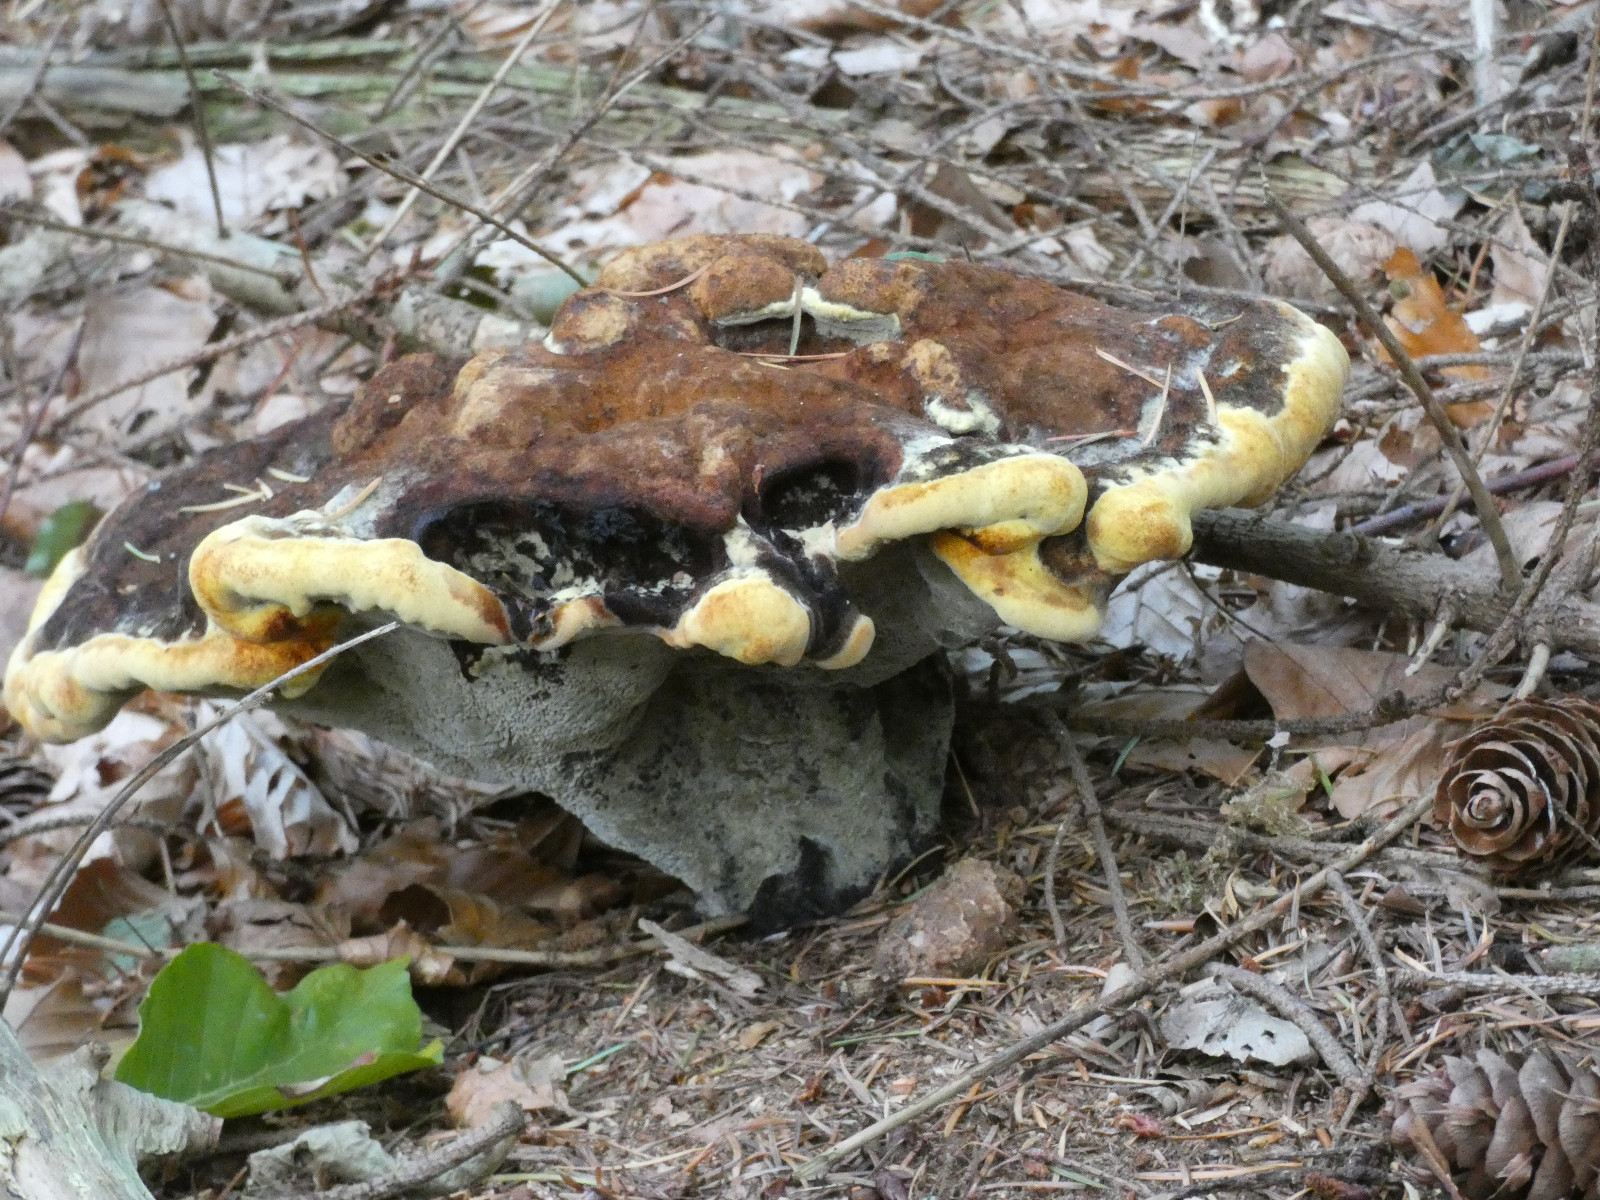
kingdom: Fungi
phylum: Basidiomycota
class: Agaricomycetes
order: Polyporales
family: Laetiporaceae
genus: Phaeolus
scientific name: Phaeolus schweinitzii
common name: brunporesvamp
